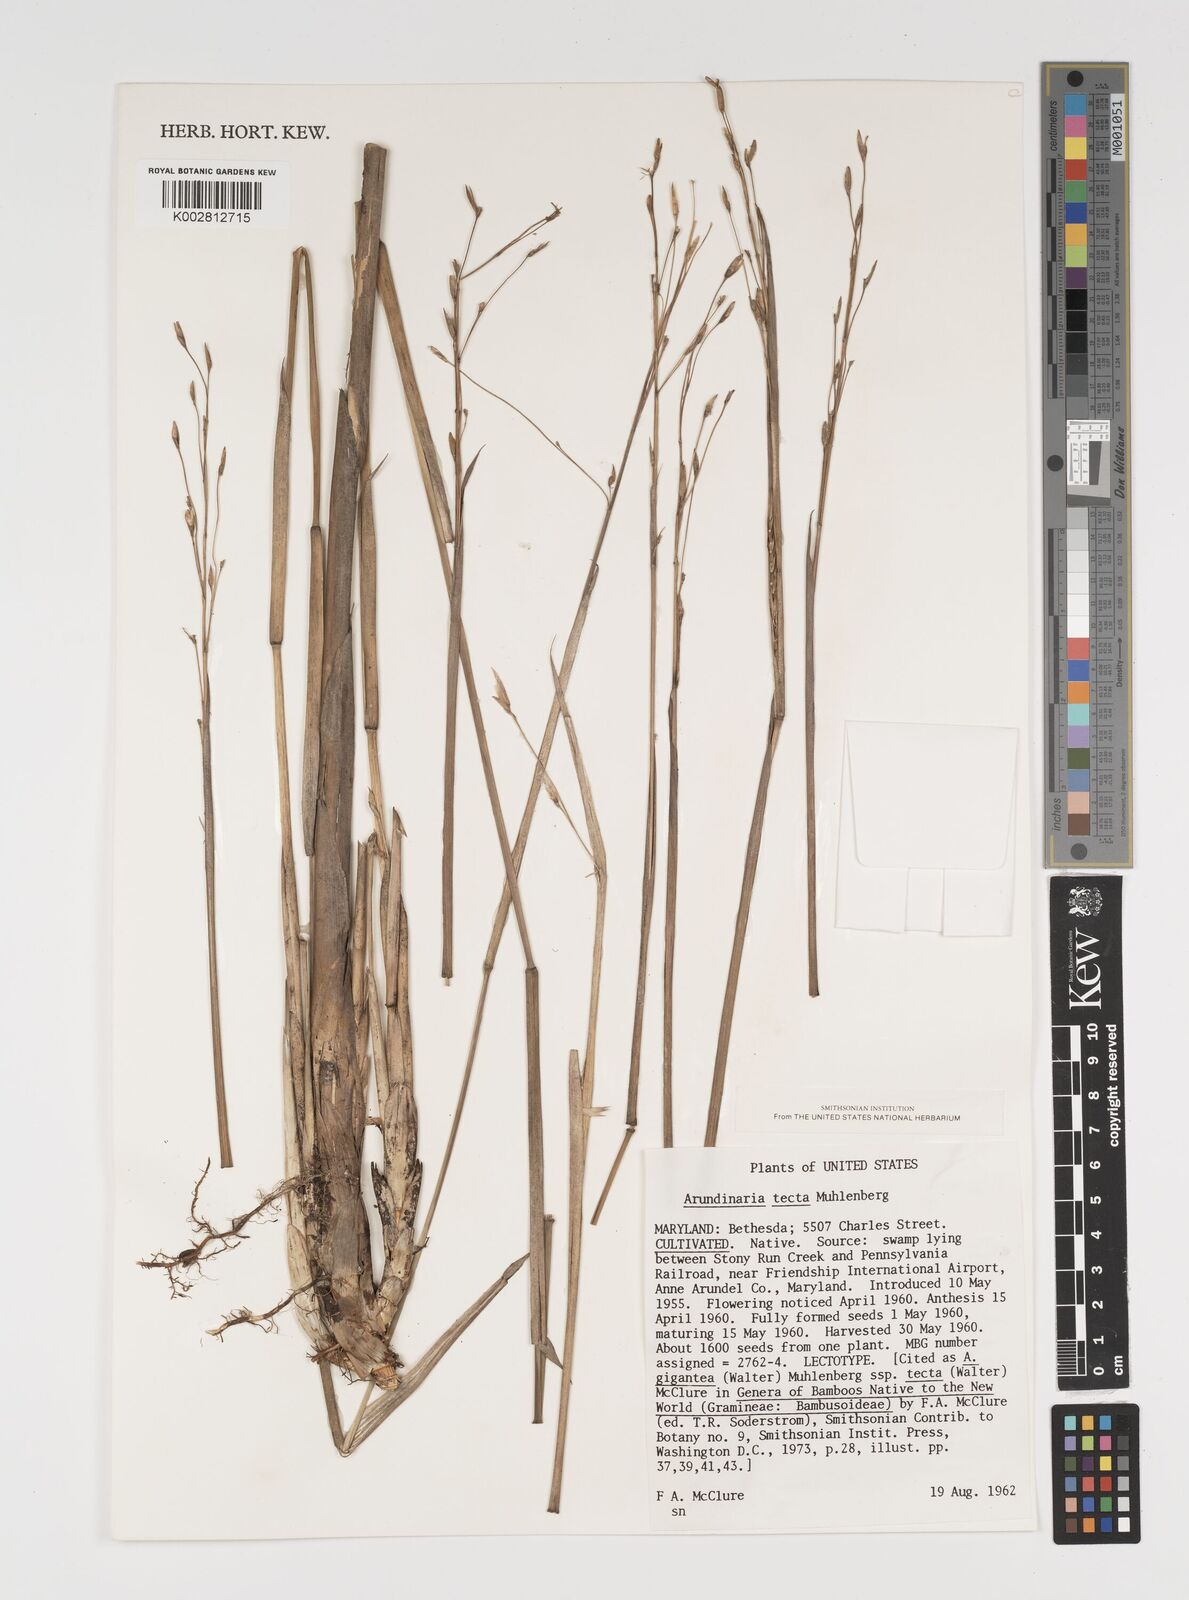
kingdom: Plantae
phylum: Tracheophyta
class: Liliopsida
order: Poales
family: Poaceae
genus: Arundinaria
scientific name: Arundinaria tecta
